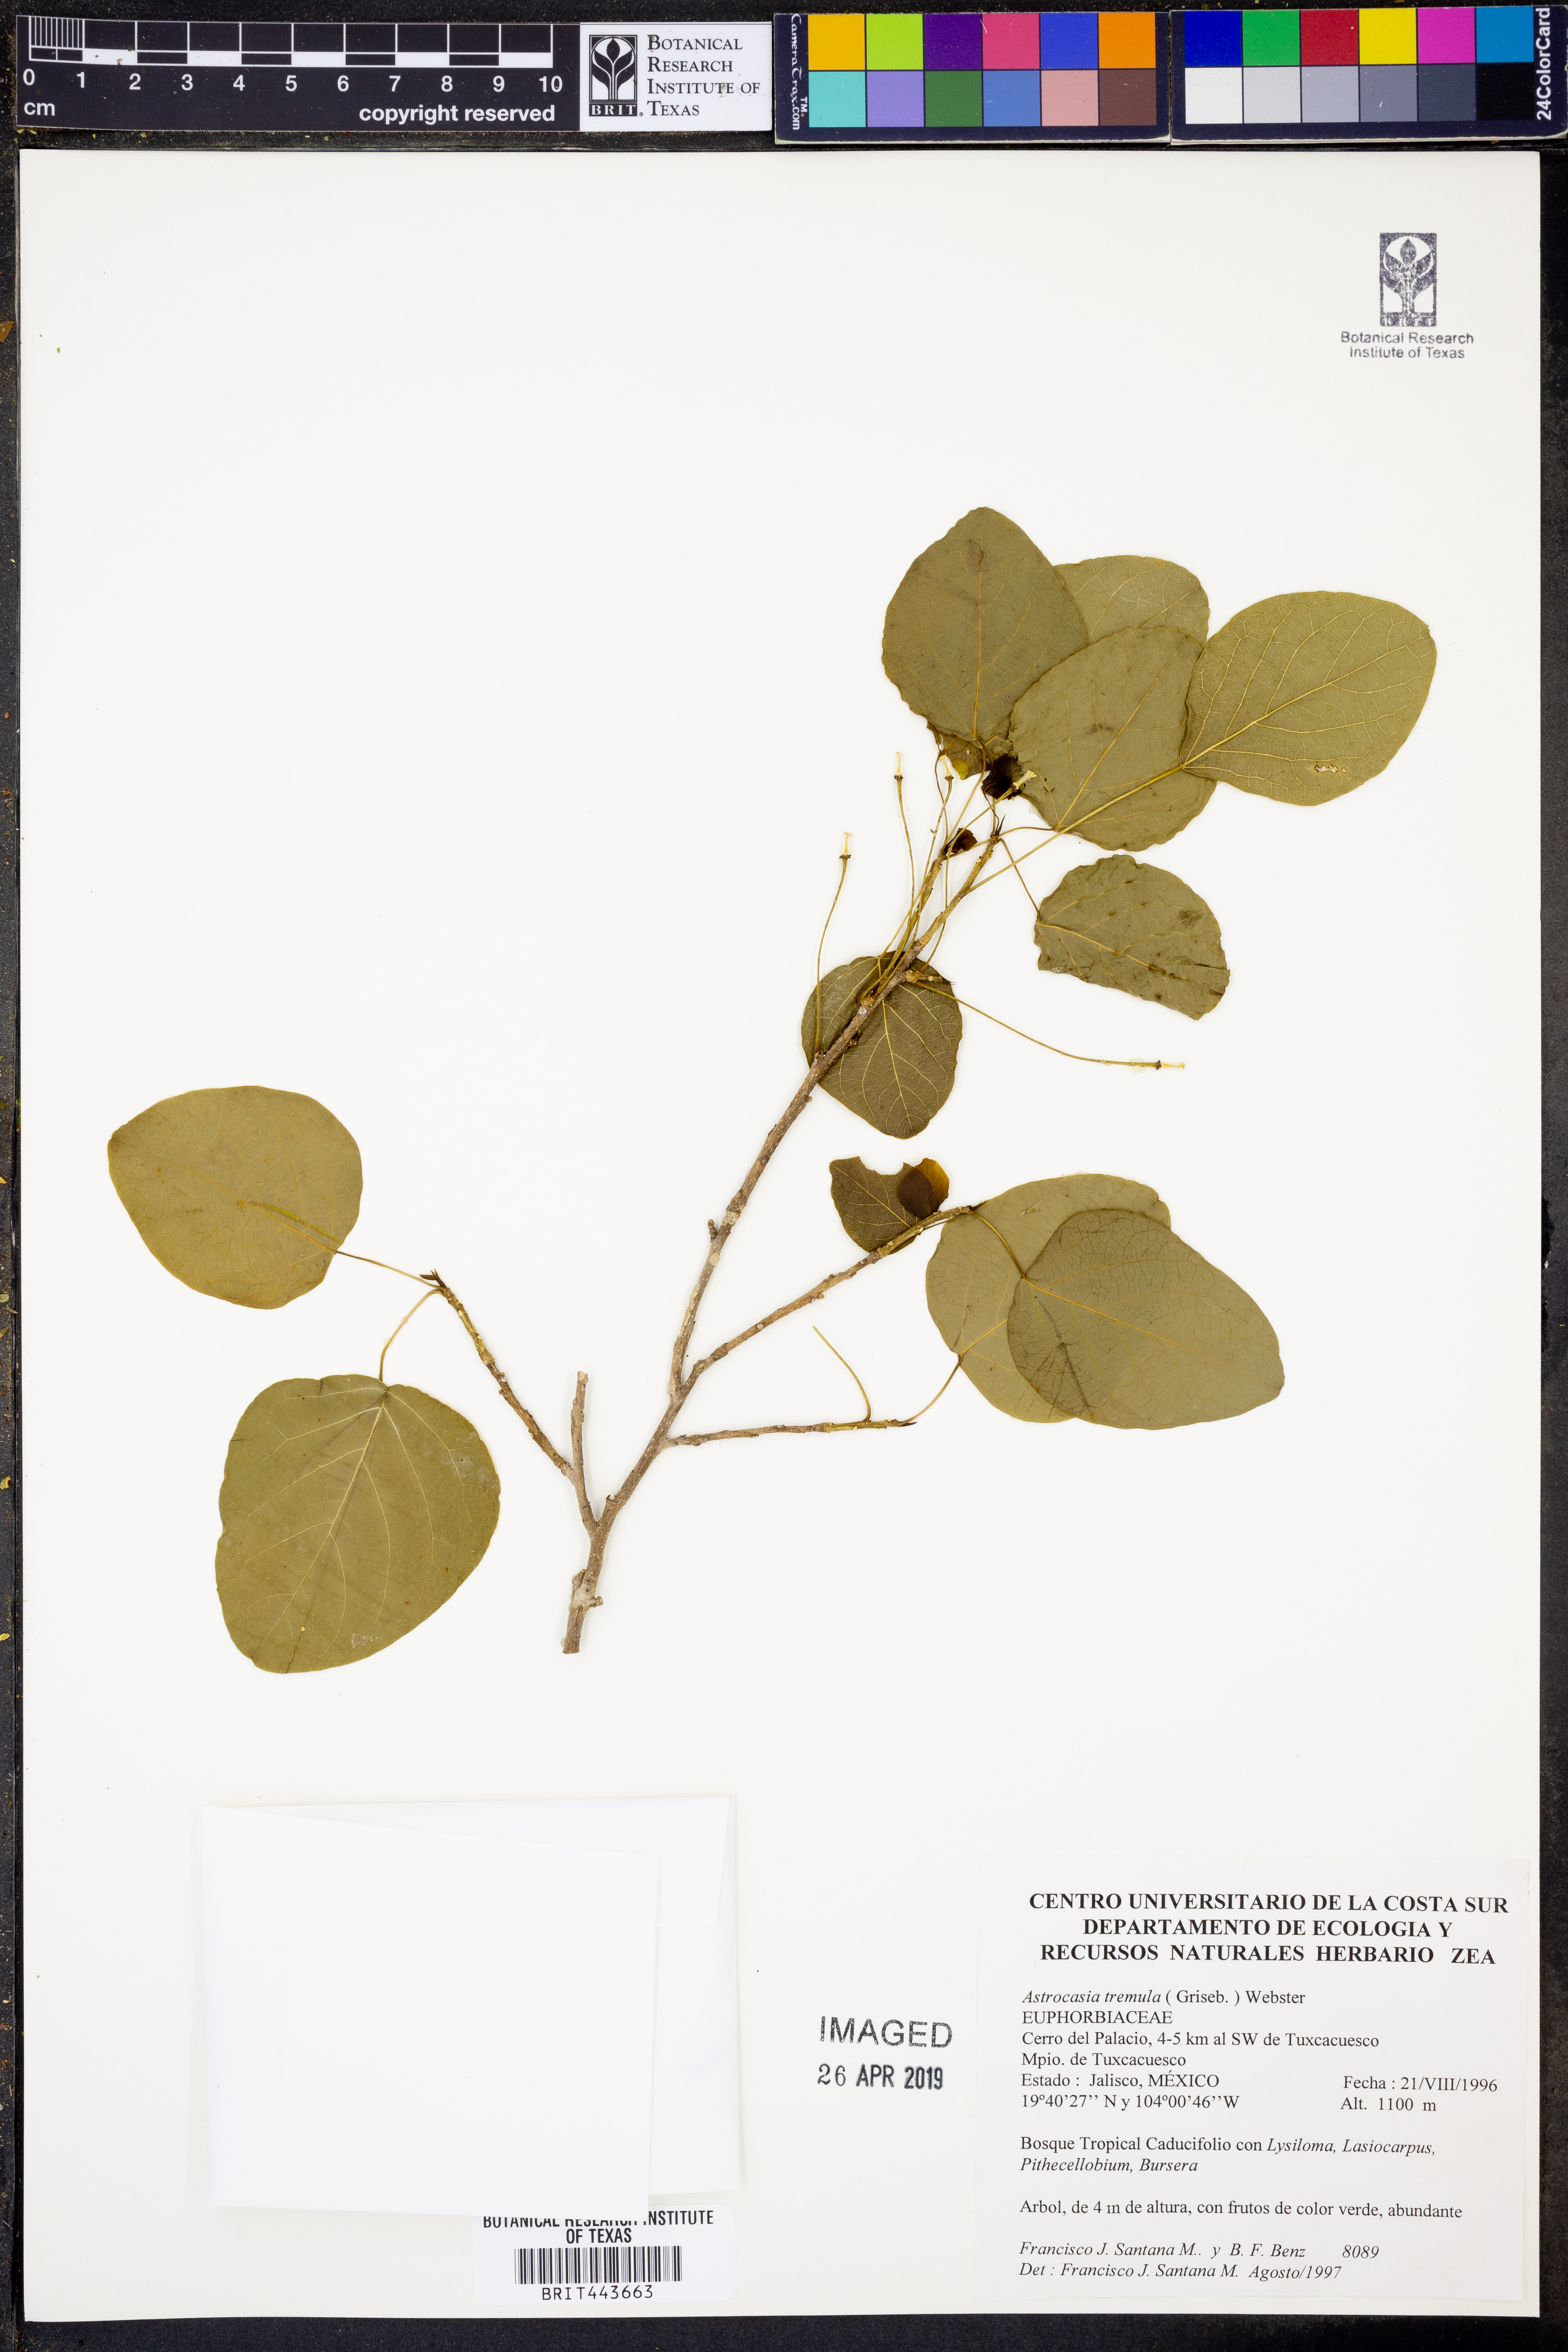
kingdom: Plantae
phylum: Tracheophyta
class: Magnoliopsida
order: Malpighiales
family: Phyllanthaceae
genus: Astrocasia
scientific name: Astrocasia tremula
